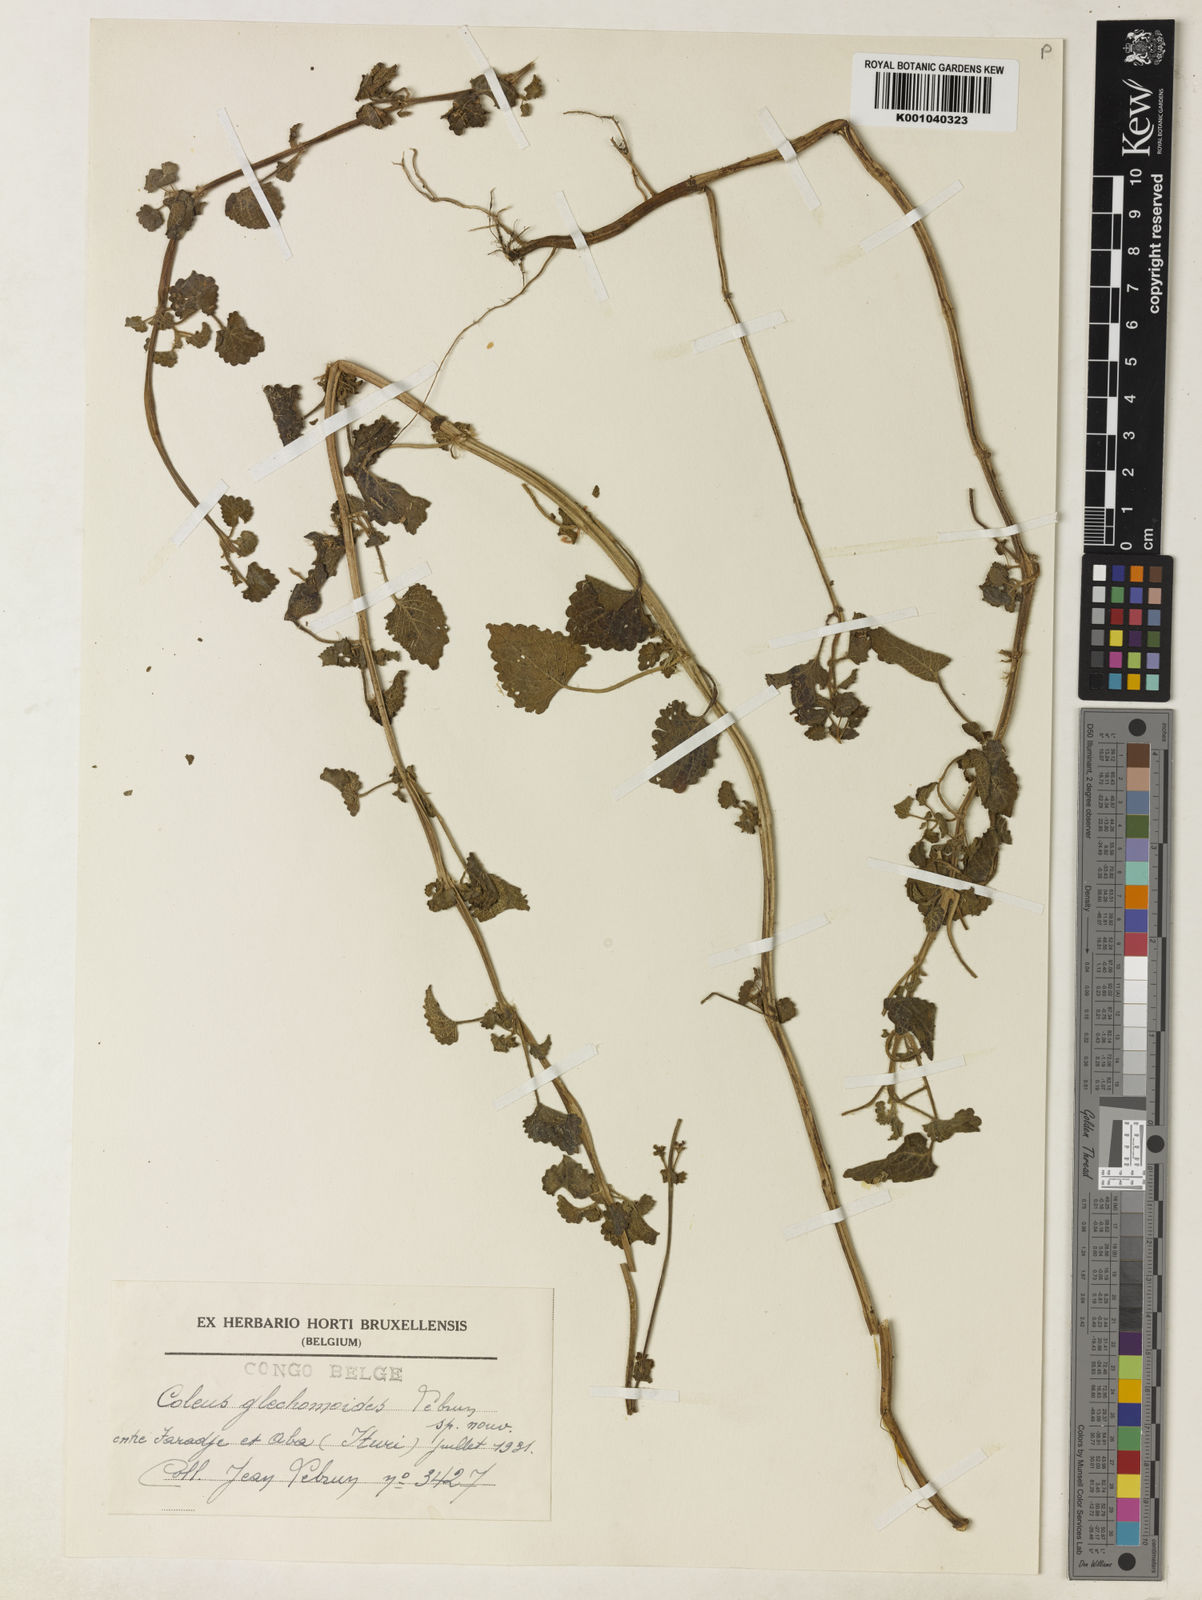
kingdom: Plantae
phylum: Tracheophyta
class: Magnoliopsida
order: Lamiales
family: Lamiaceae
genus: Plectranthus
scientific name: Plectranthus
